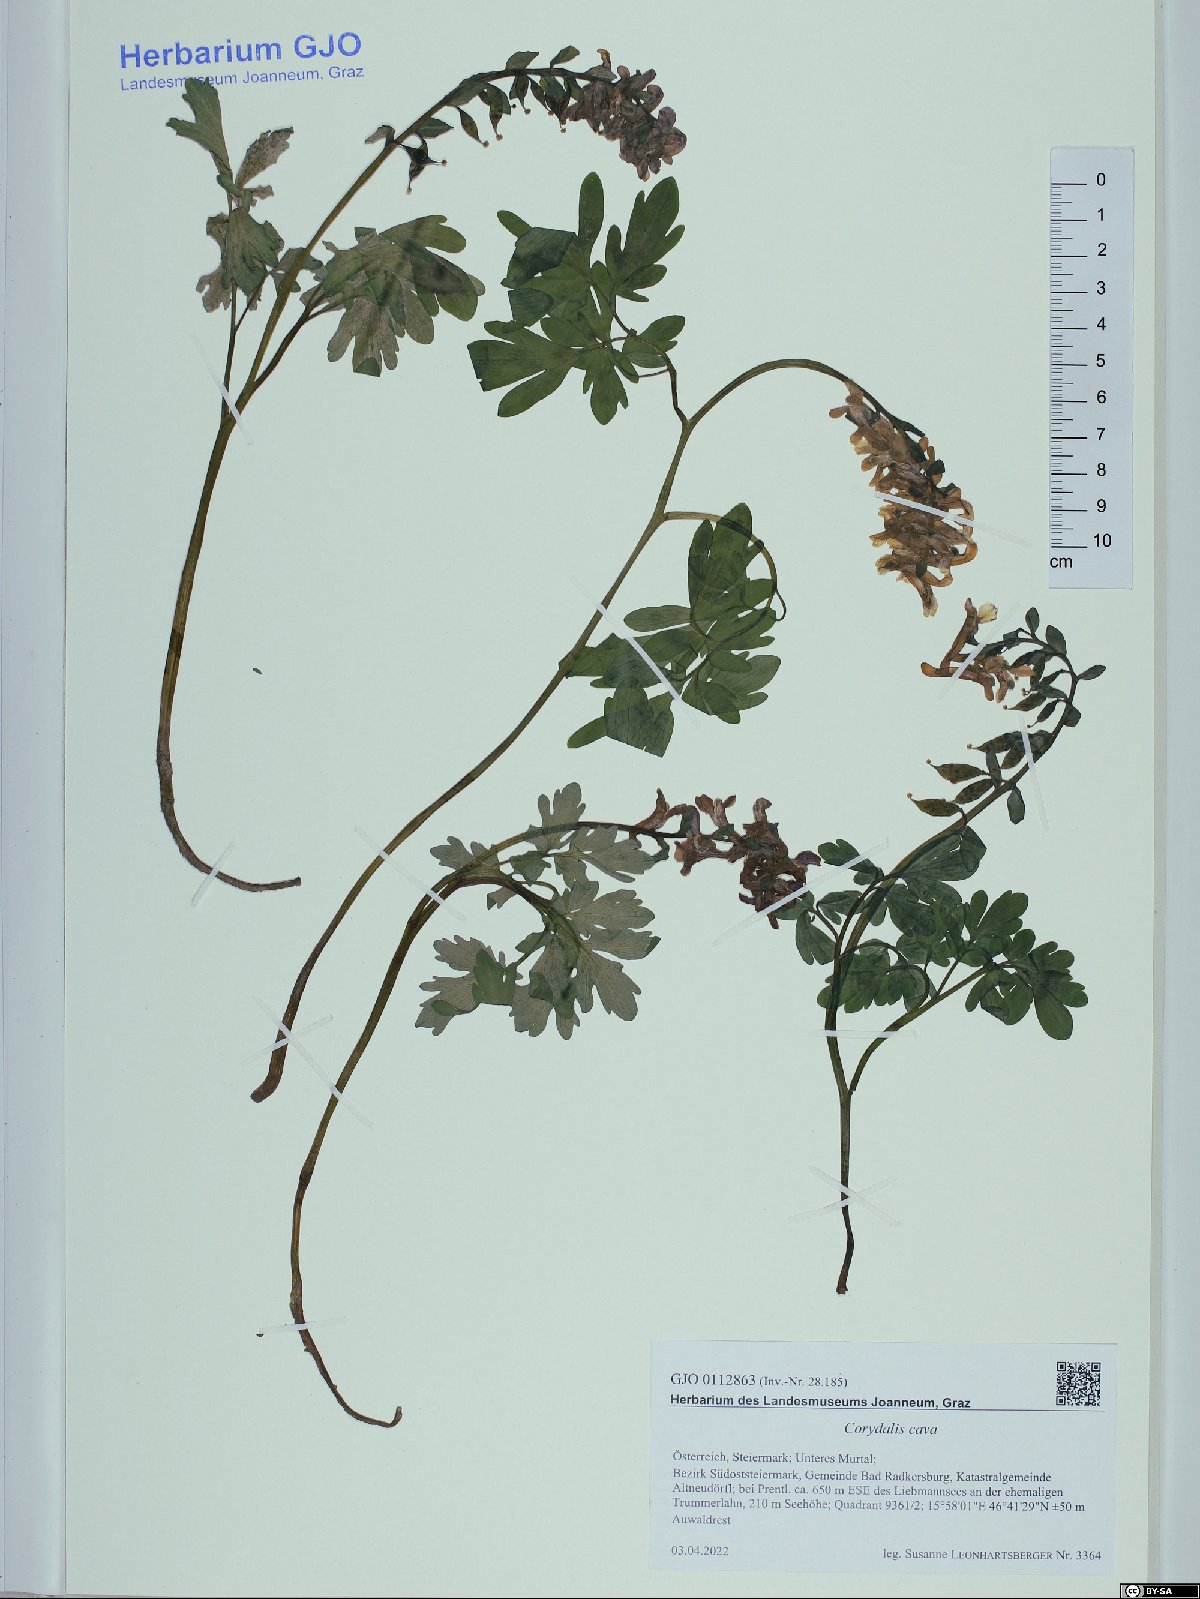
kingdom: Plantae
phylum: Tracheophyta
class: Magnoliopsida
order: Ranunculales
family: Papaveraceae
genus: Corydalis
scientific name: Corydalis cava
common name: Hollowroot
